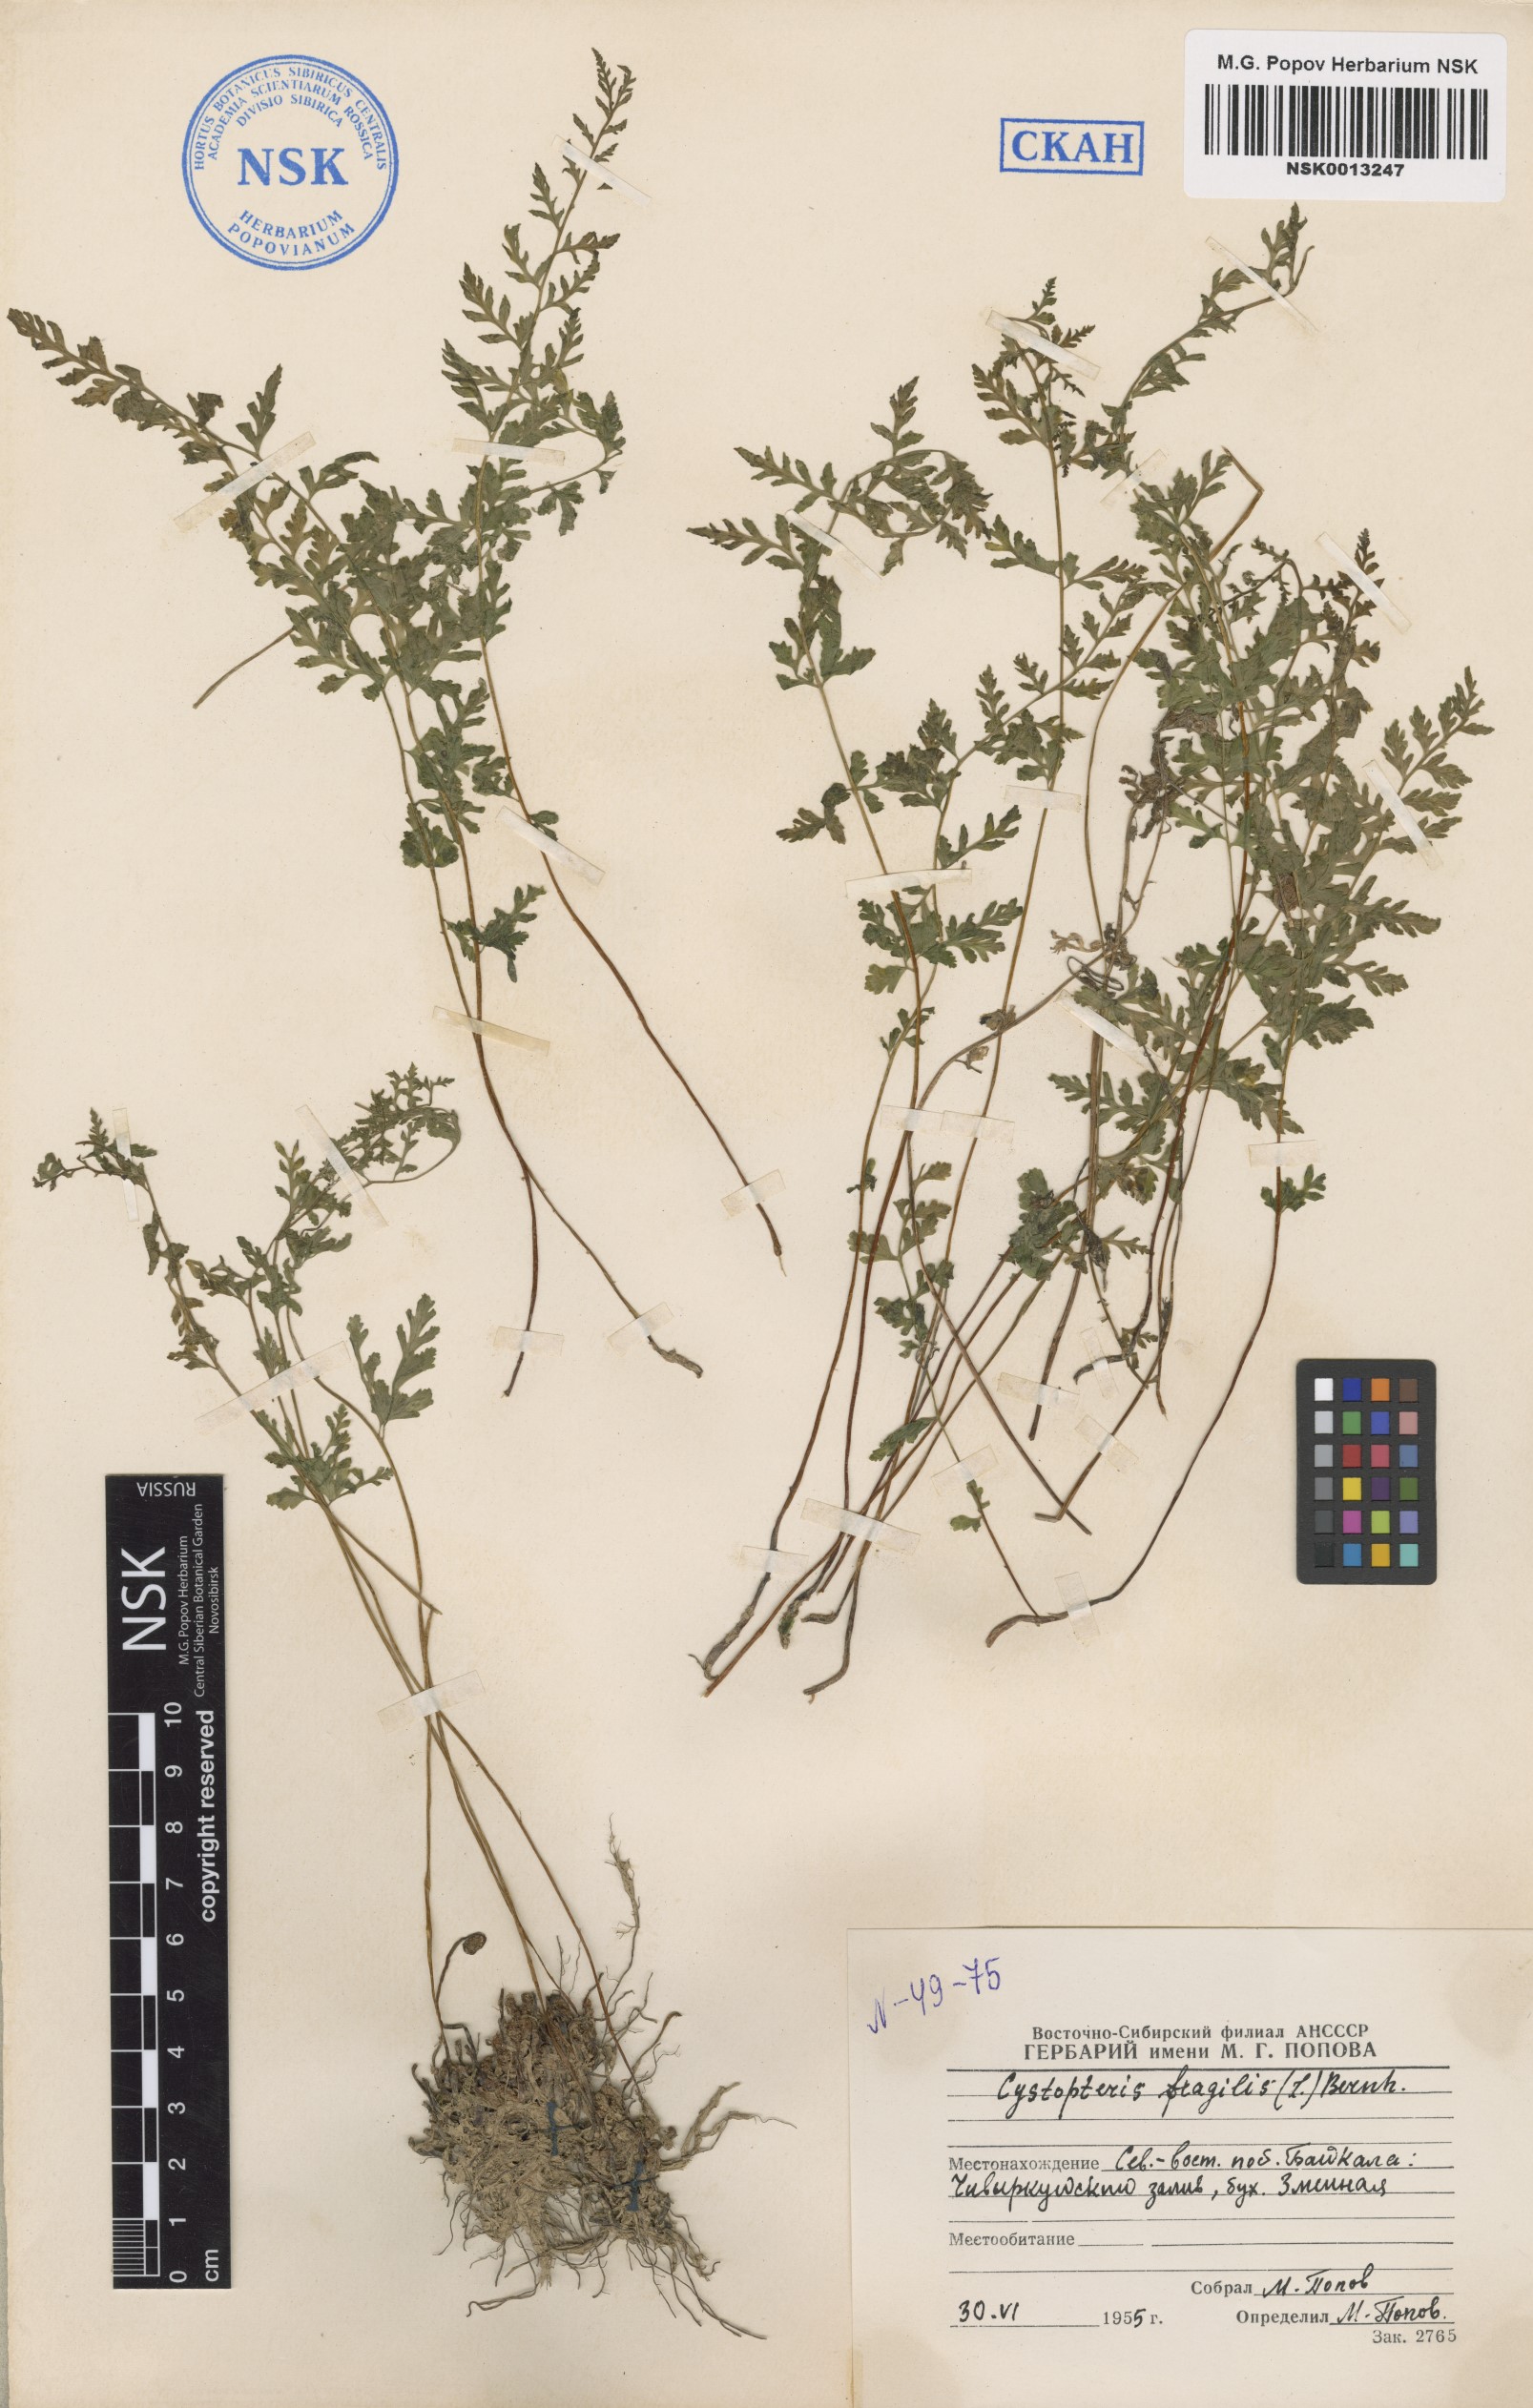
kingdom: Plantae
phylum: Tracheophyta
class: Polypodiopsida
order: Polypodiales
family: Cystopteridaceae
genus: Cystopteris
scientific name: Cystopteris fragilis
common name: Brittle bladder fern
